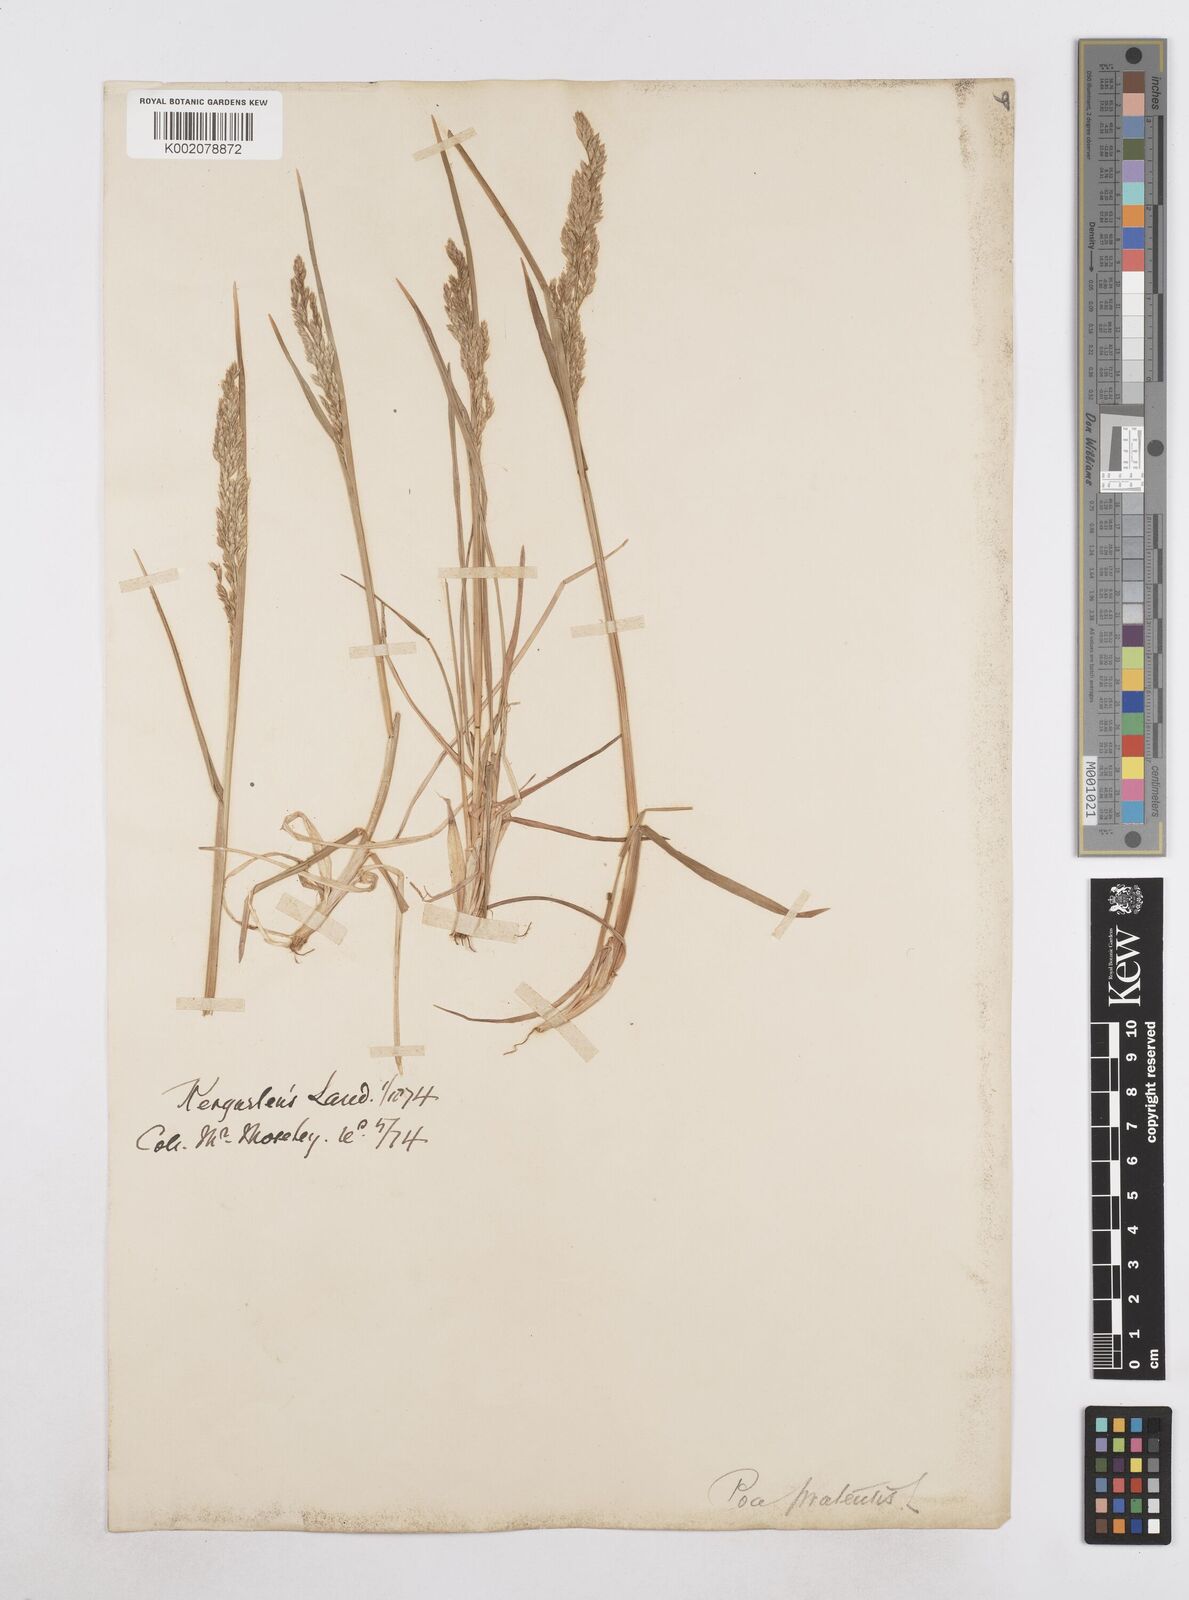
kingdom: Plantae
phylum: Tracheophyta
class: Liliopsida
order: Poales
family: Poaceae
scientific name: Poaceae
